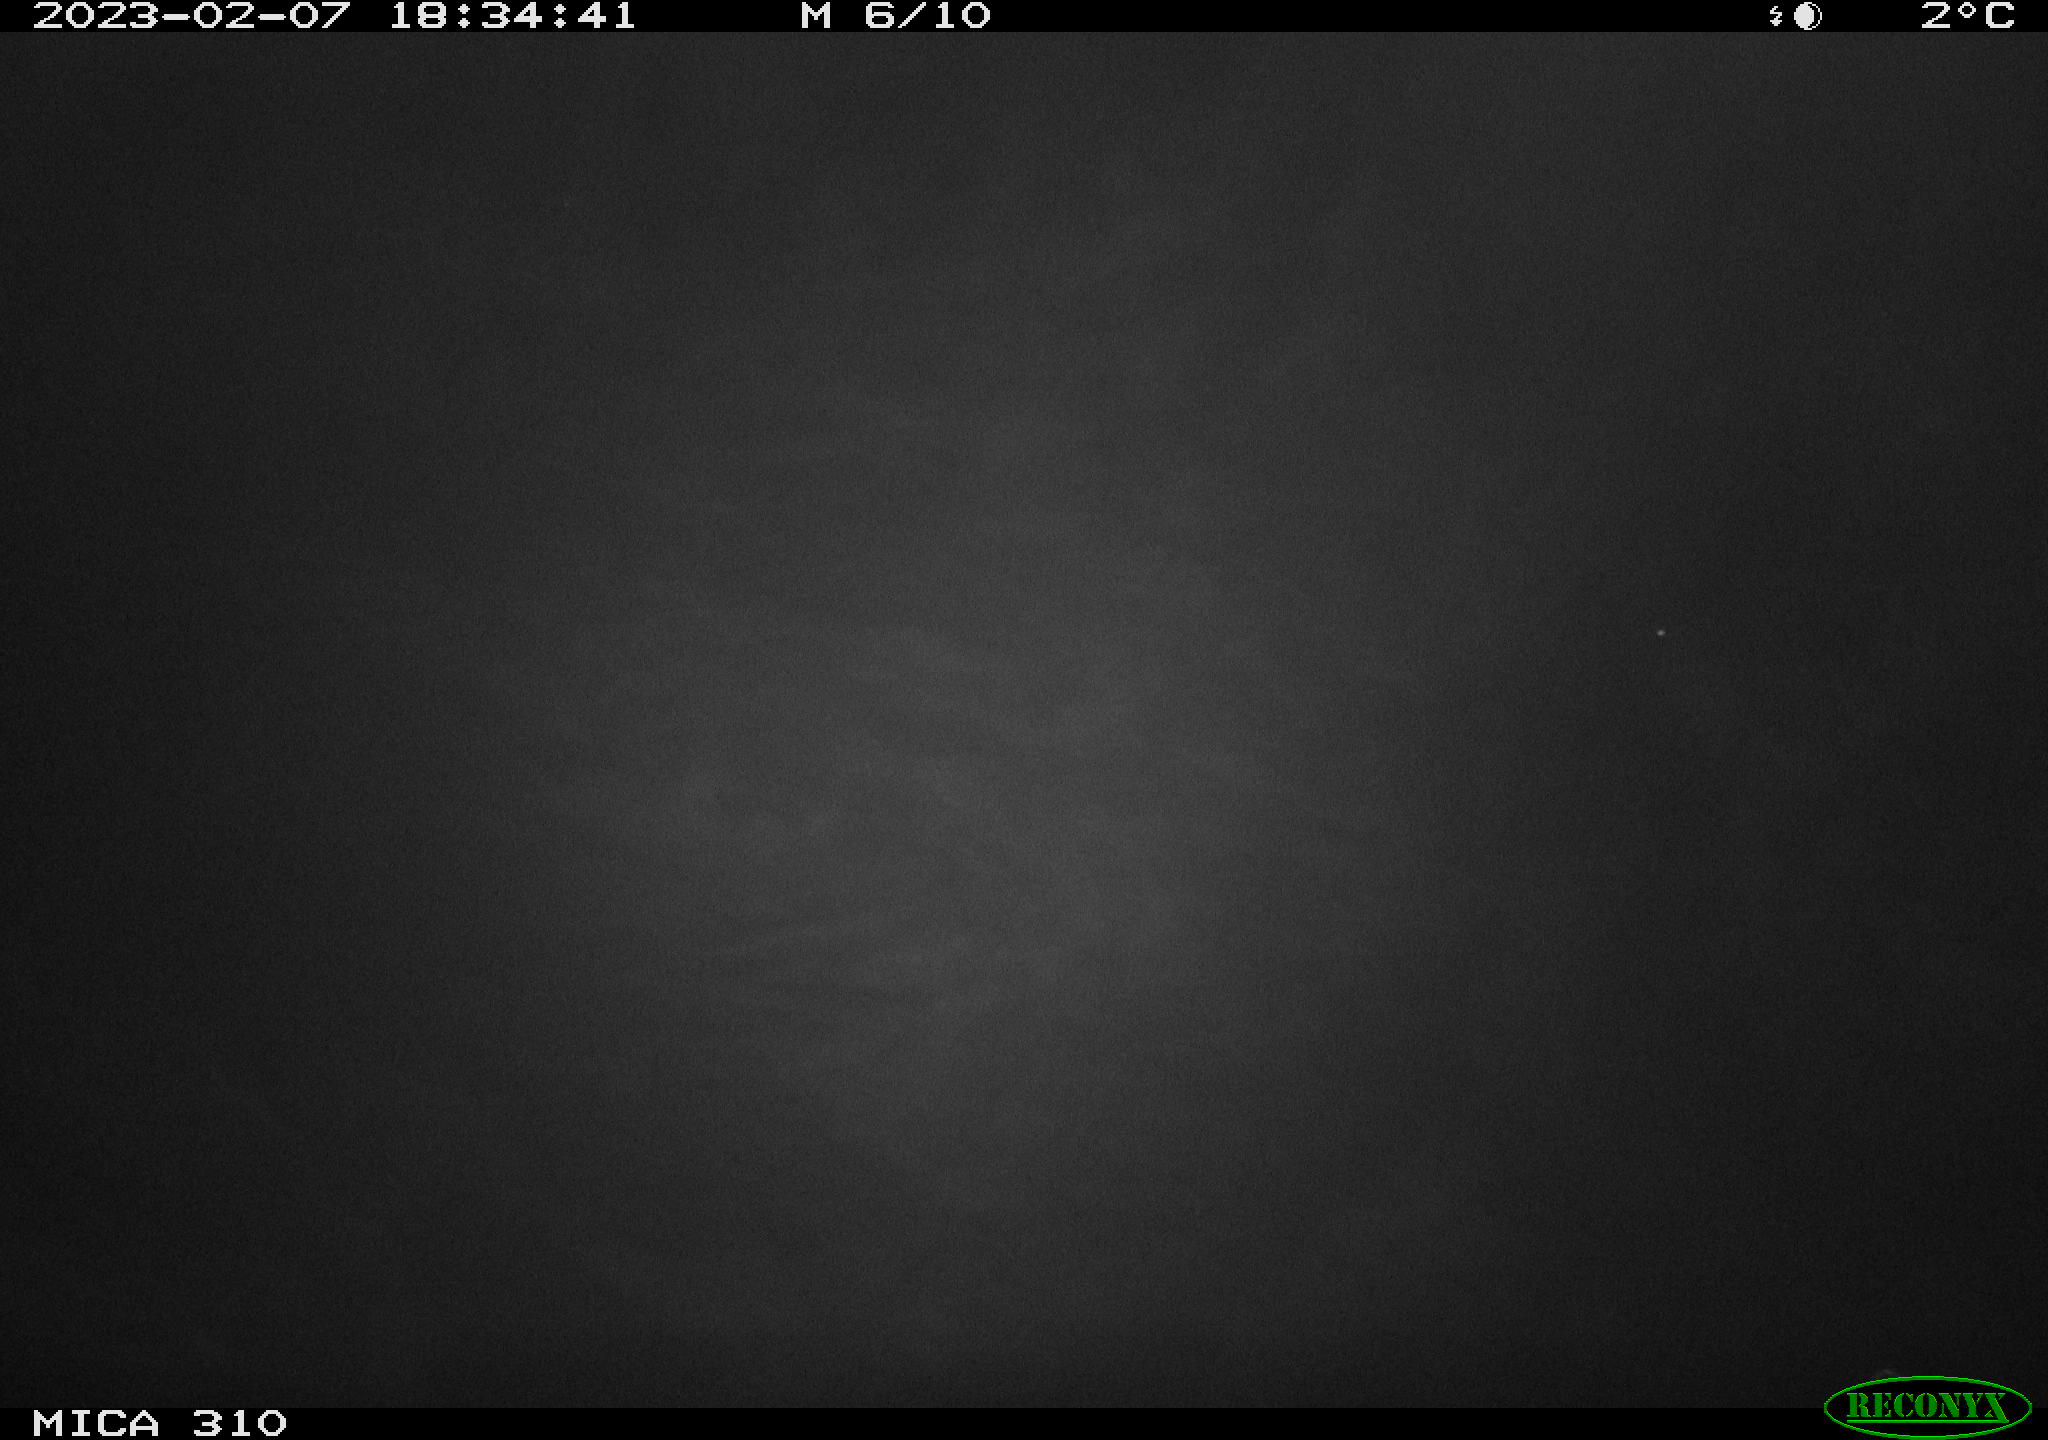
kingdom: Animalia
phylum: Chordata
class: Aves
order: Anseriformes
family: Anatidae
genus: Anas
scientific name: Anas
